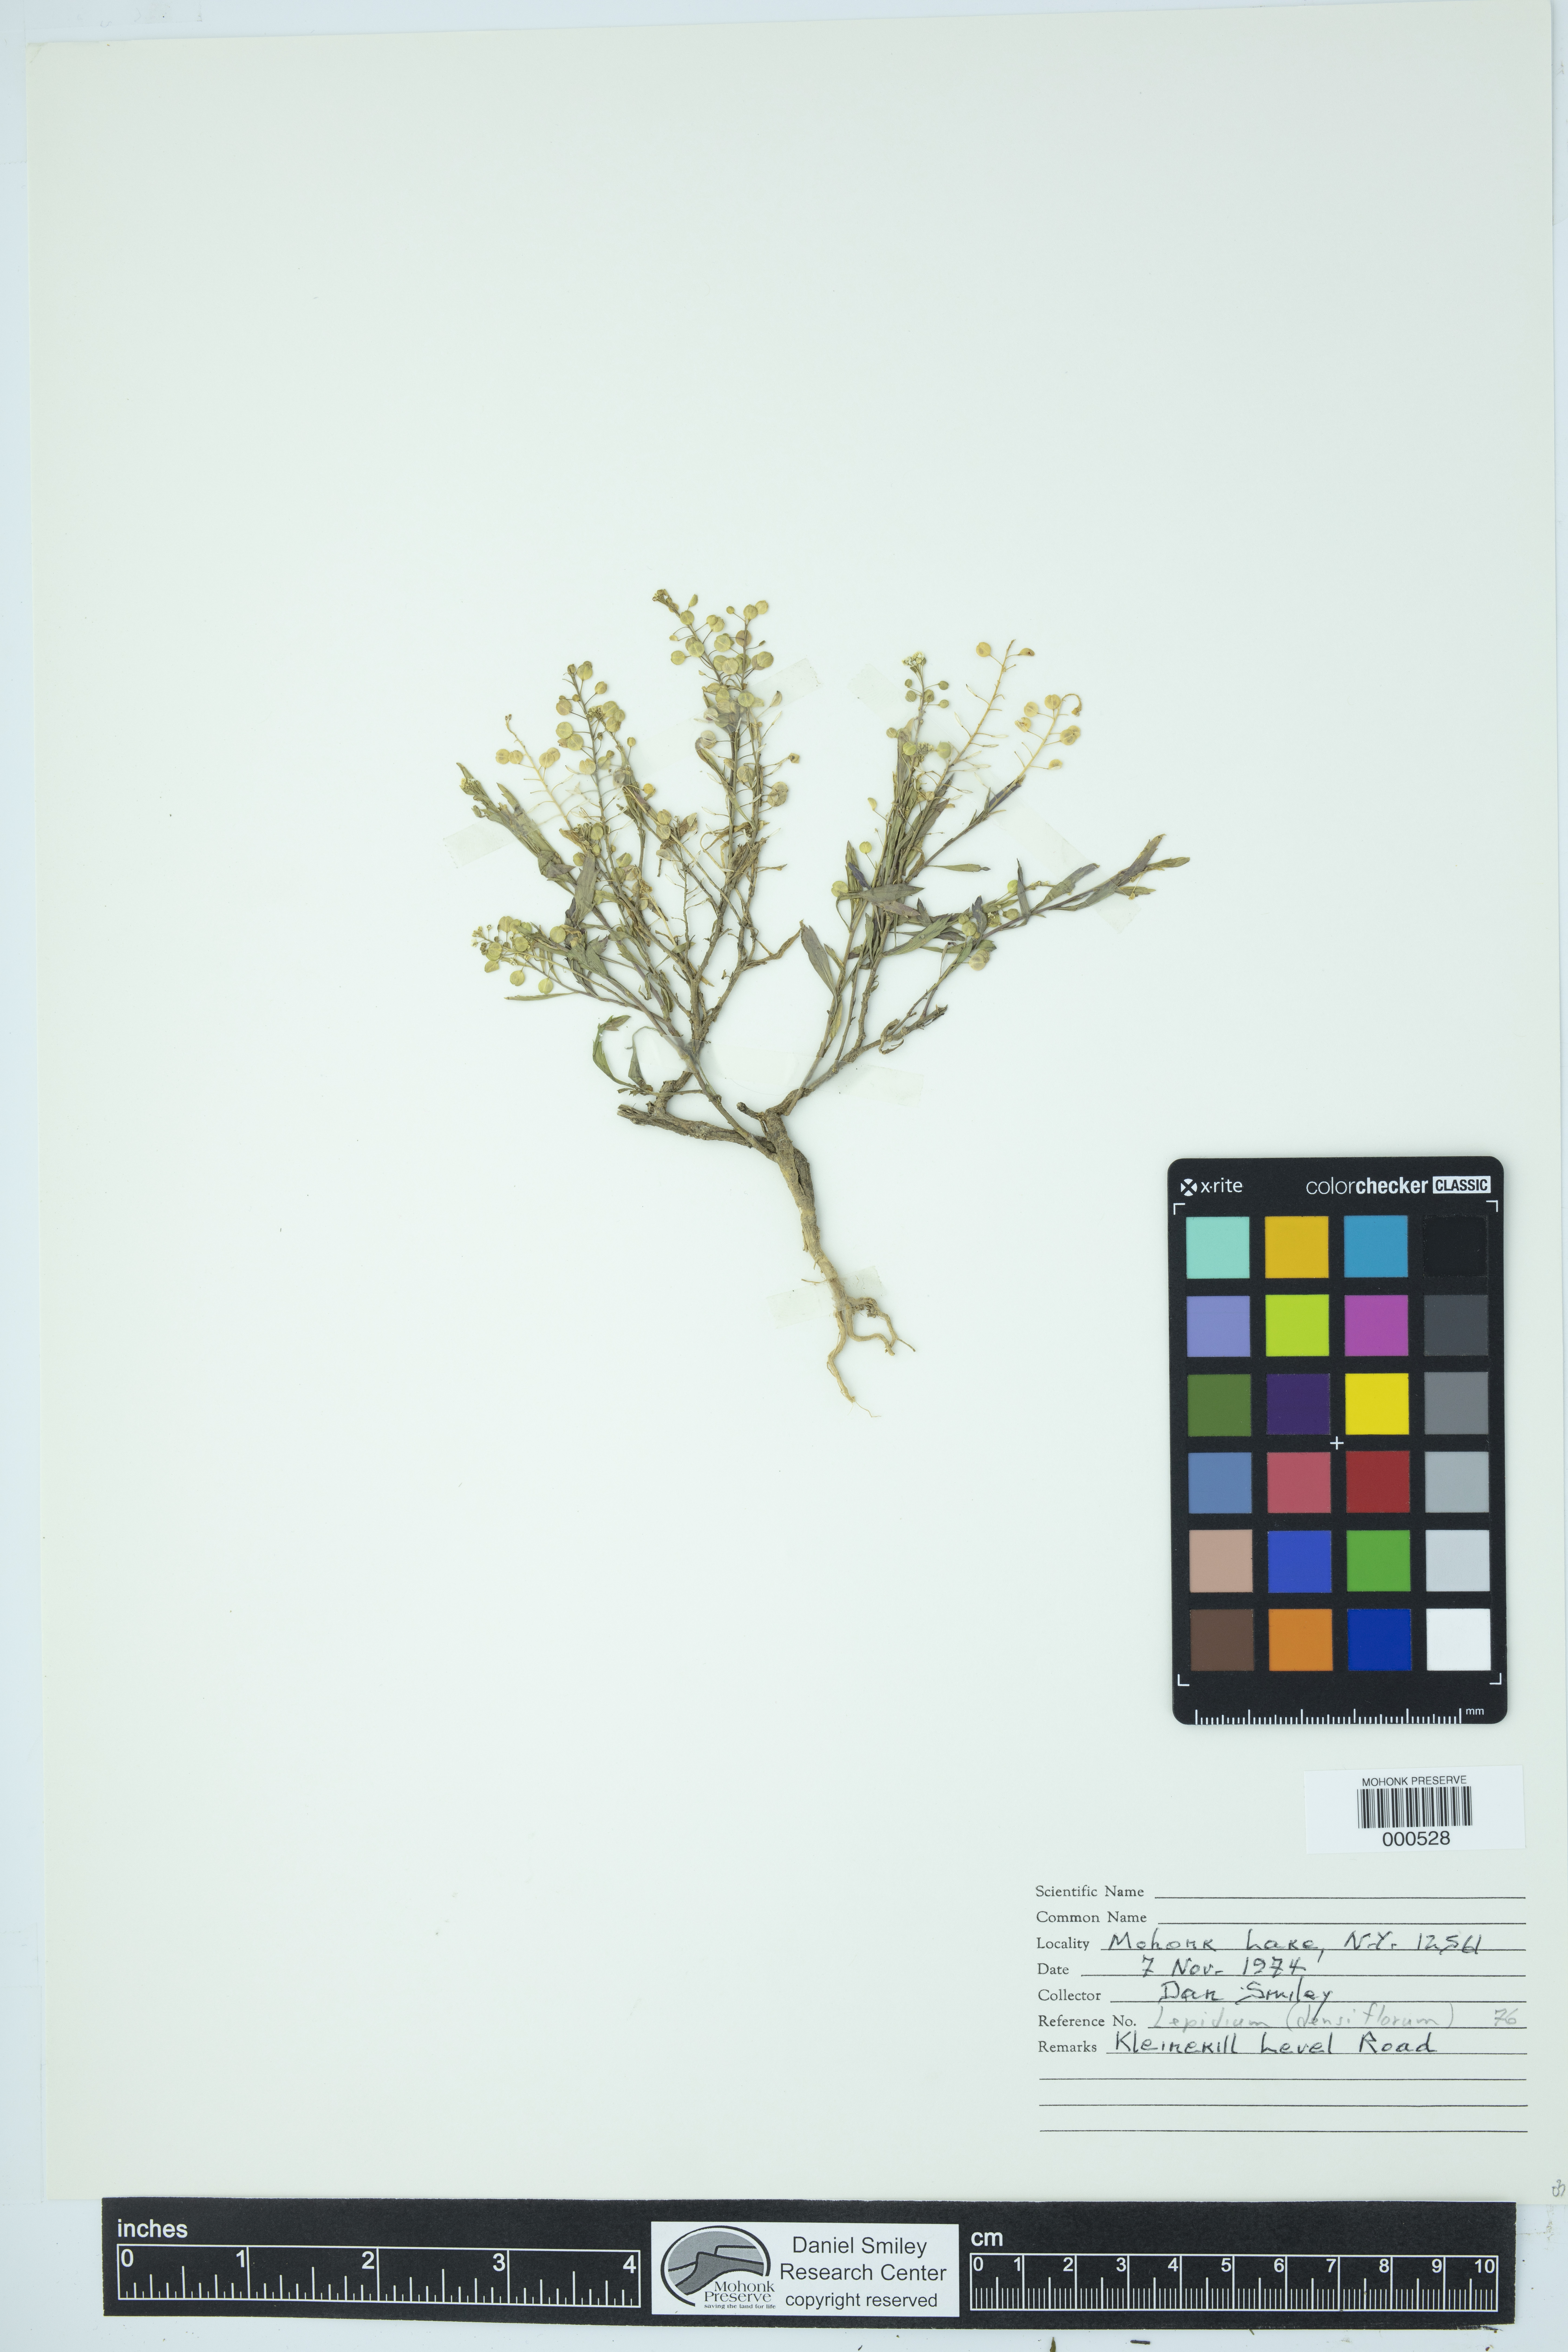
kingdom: Plantae
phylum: Tracheophyta
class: Magnoliopsida
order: Brassicales
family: Brassicaceae
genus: Lepidium
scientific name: Lepidium densiflorum
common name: Miner's pepperwort
